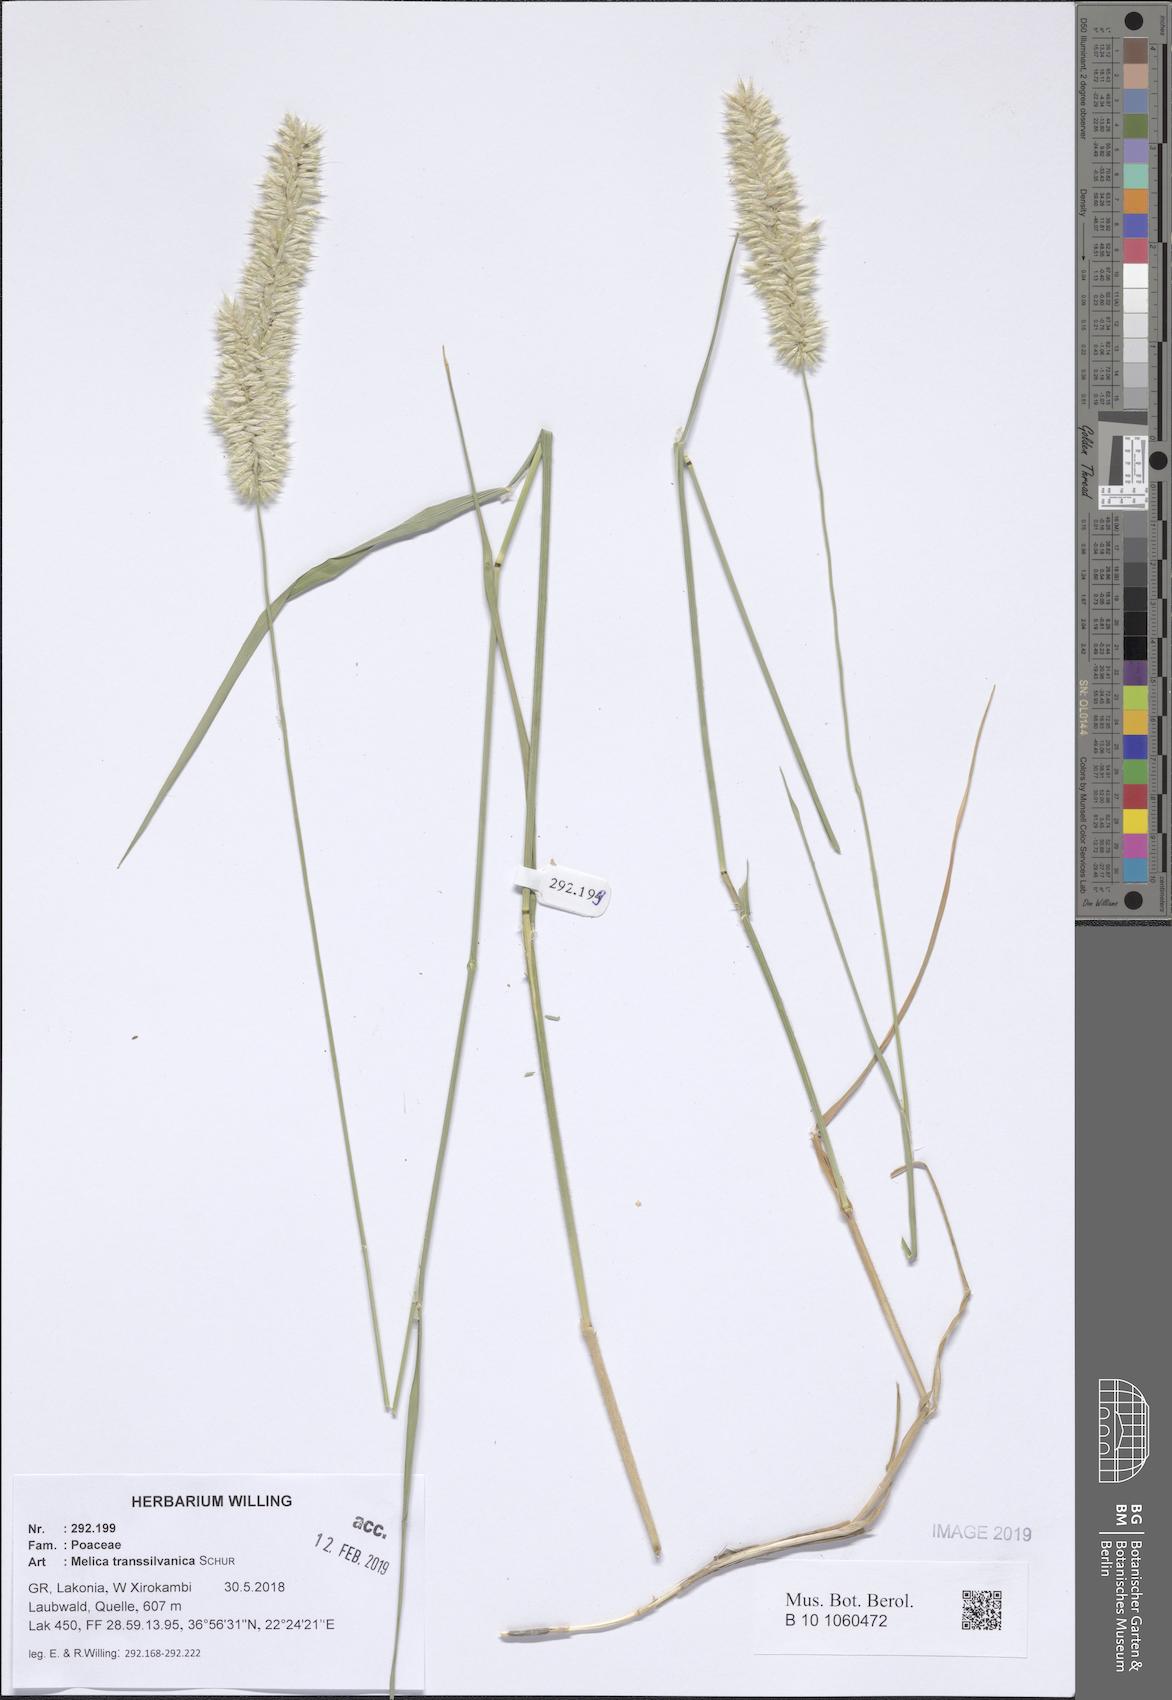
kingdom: Plantae
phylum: Tracheophyta
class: Liliopsida
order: Poales
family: Poaceae
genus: Melica
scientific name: Melica transsilvanica
